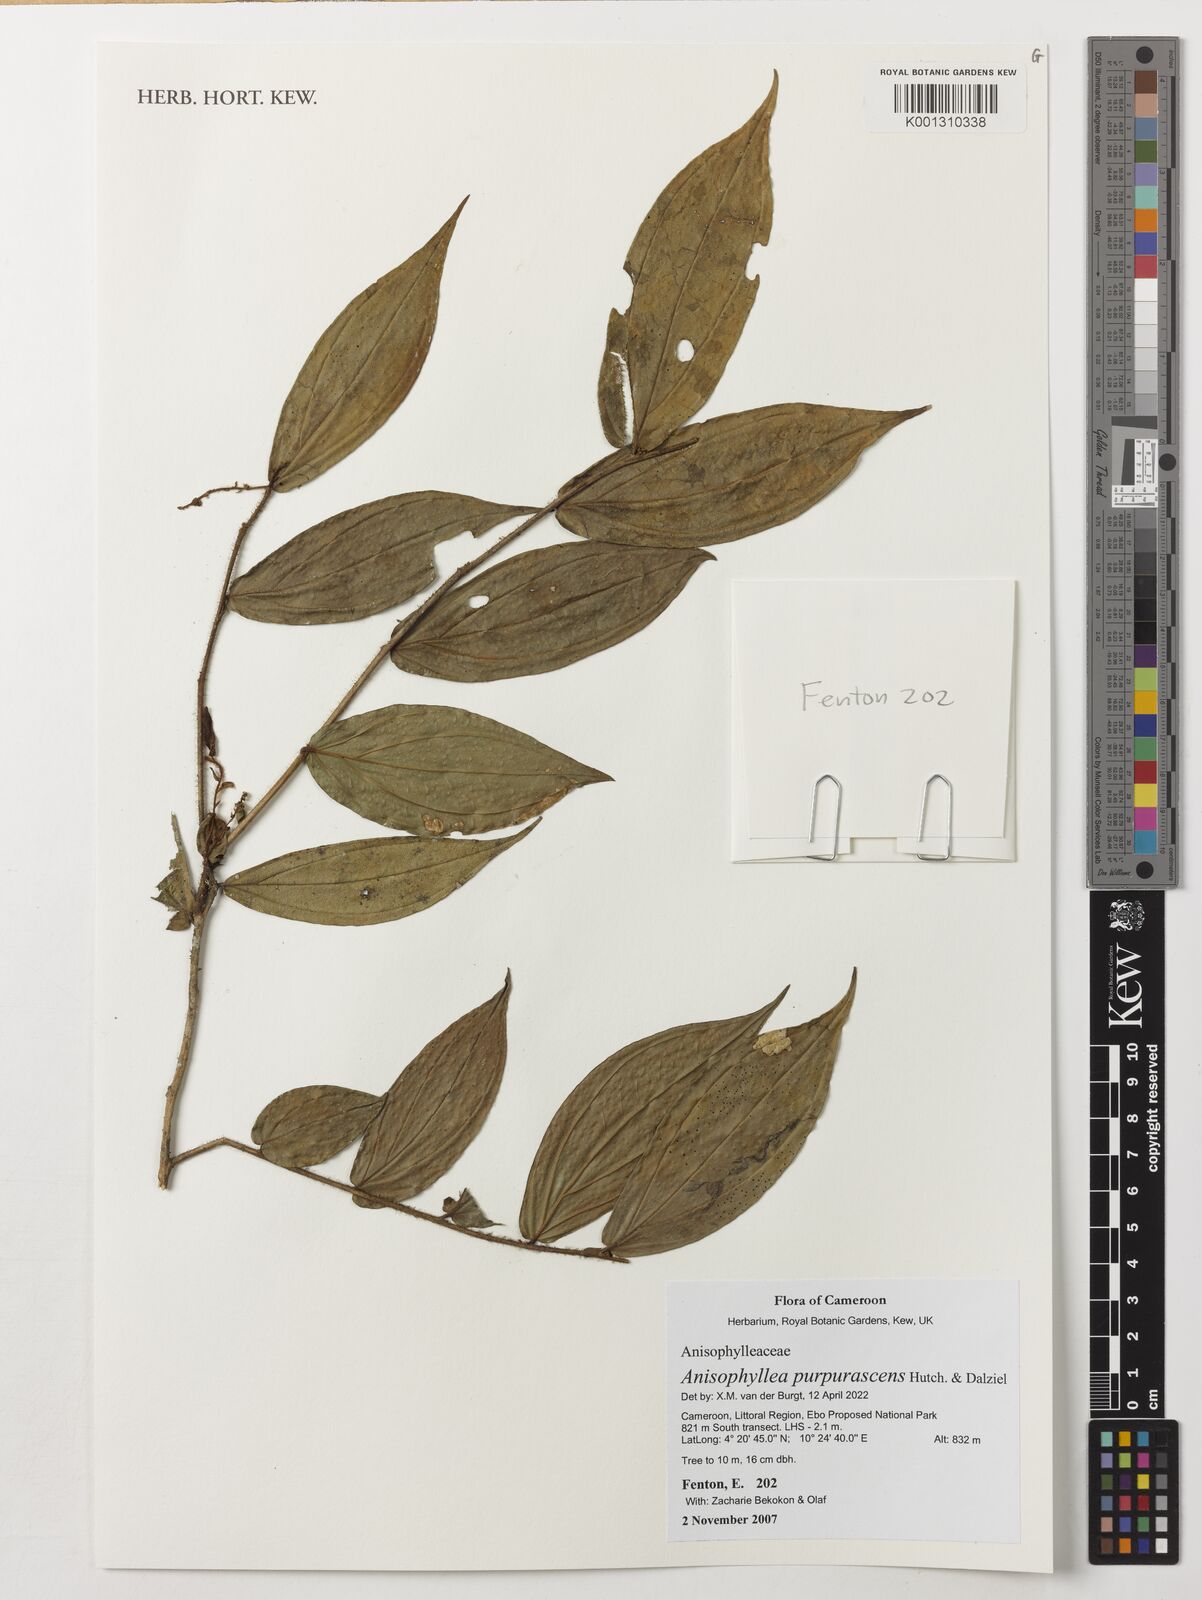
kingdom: Plantae
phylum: Tracheophyta
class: Magnoliopsida
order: Cucurbitales
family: Anisophylleaceae
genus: Anisophyllea
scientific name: Anisophyllea purpurascens
